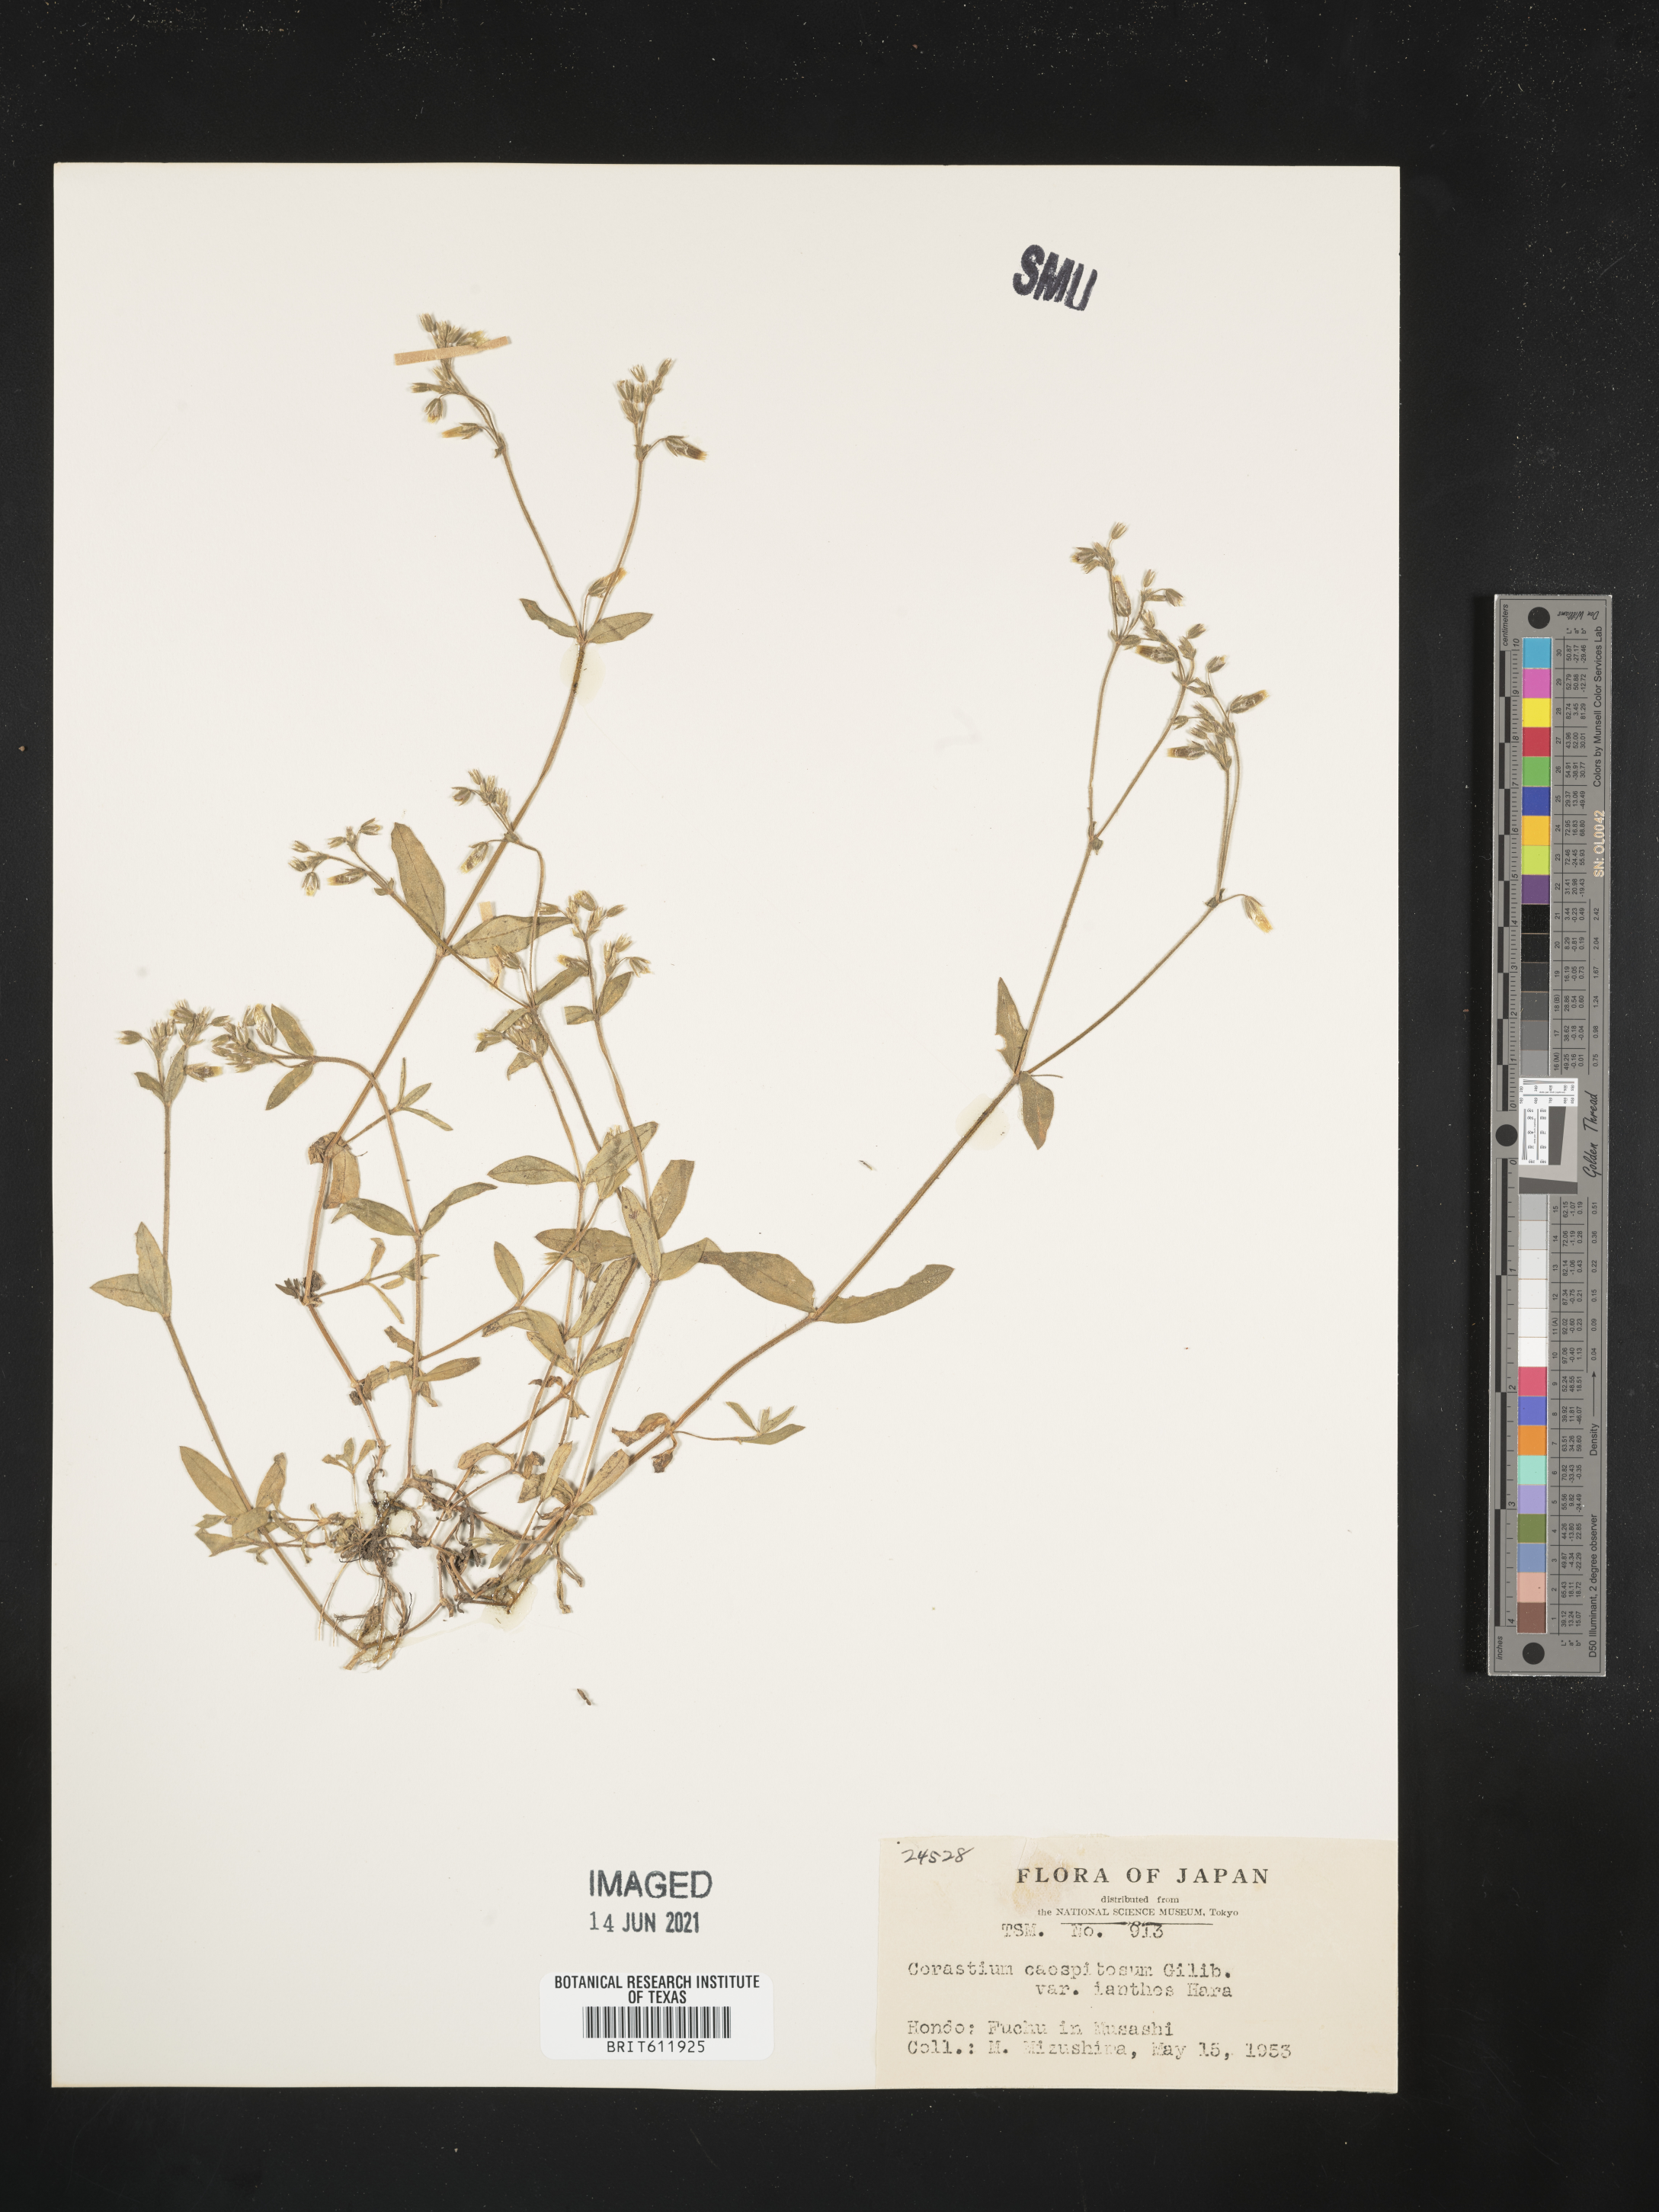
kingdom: Plantae
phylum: Tracheophyta
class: Magnoliopsida
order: Caryophyllales
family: Caryophyllaceae
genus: Cerastium
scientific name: Cerastium fontanum
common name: Common mouse-ear
